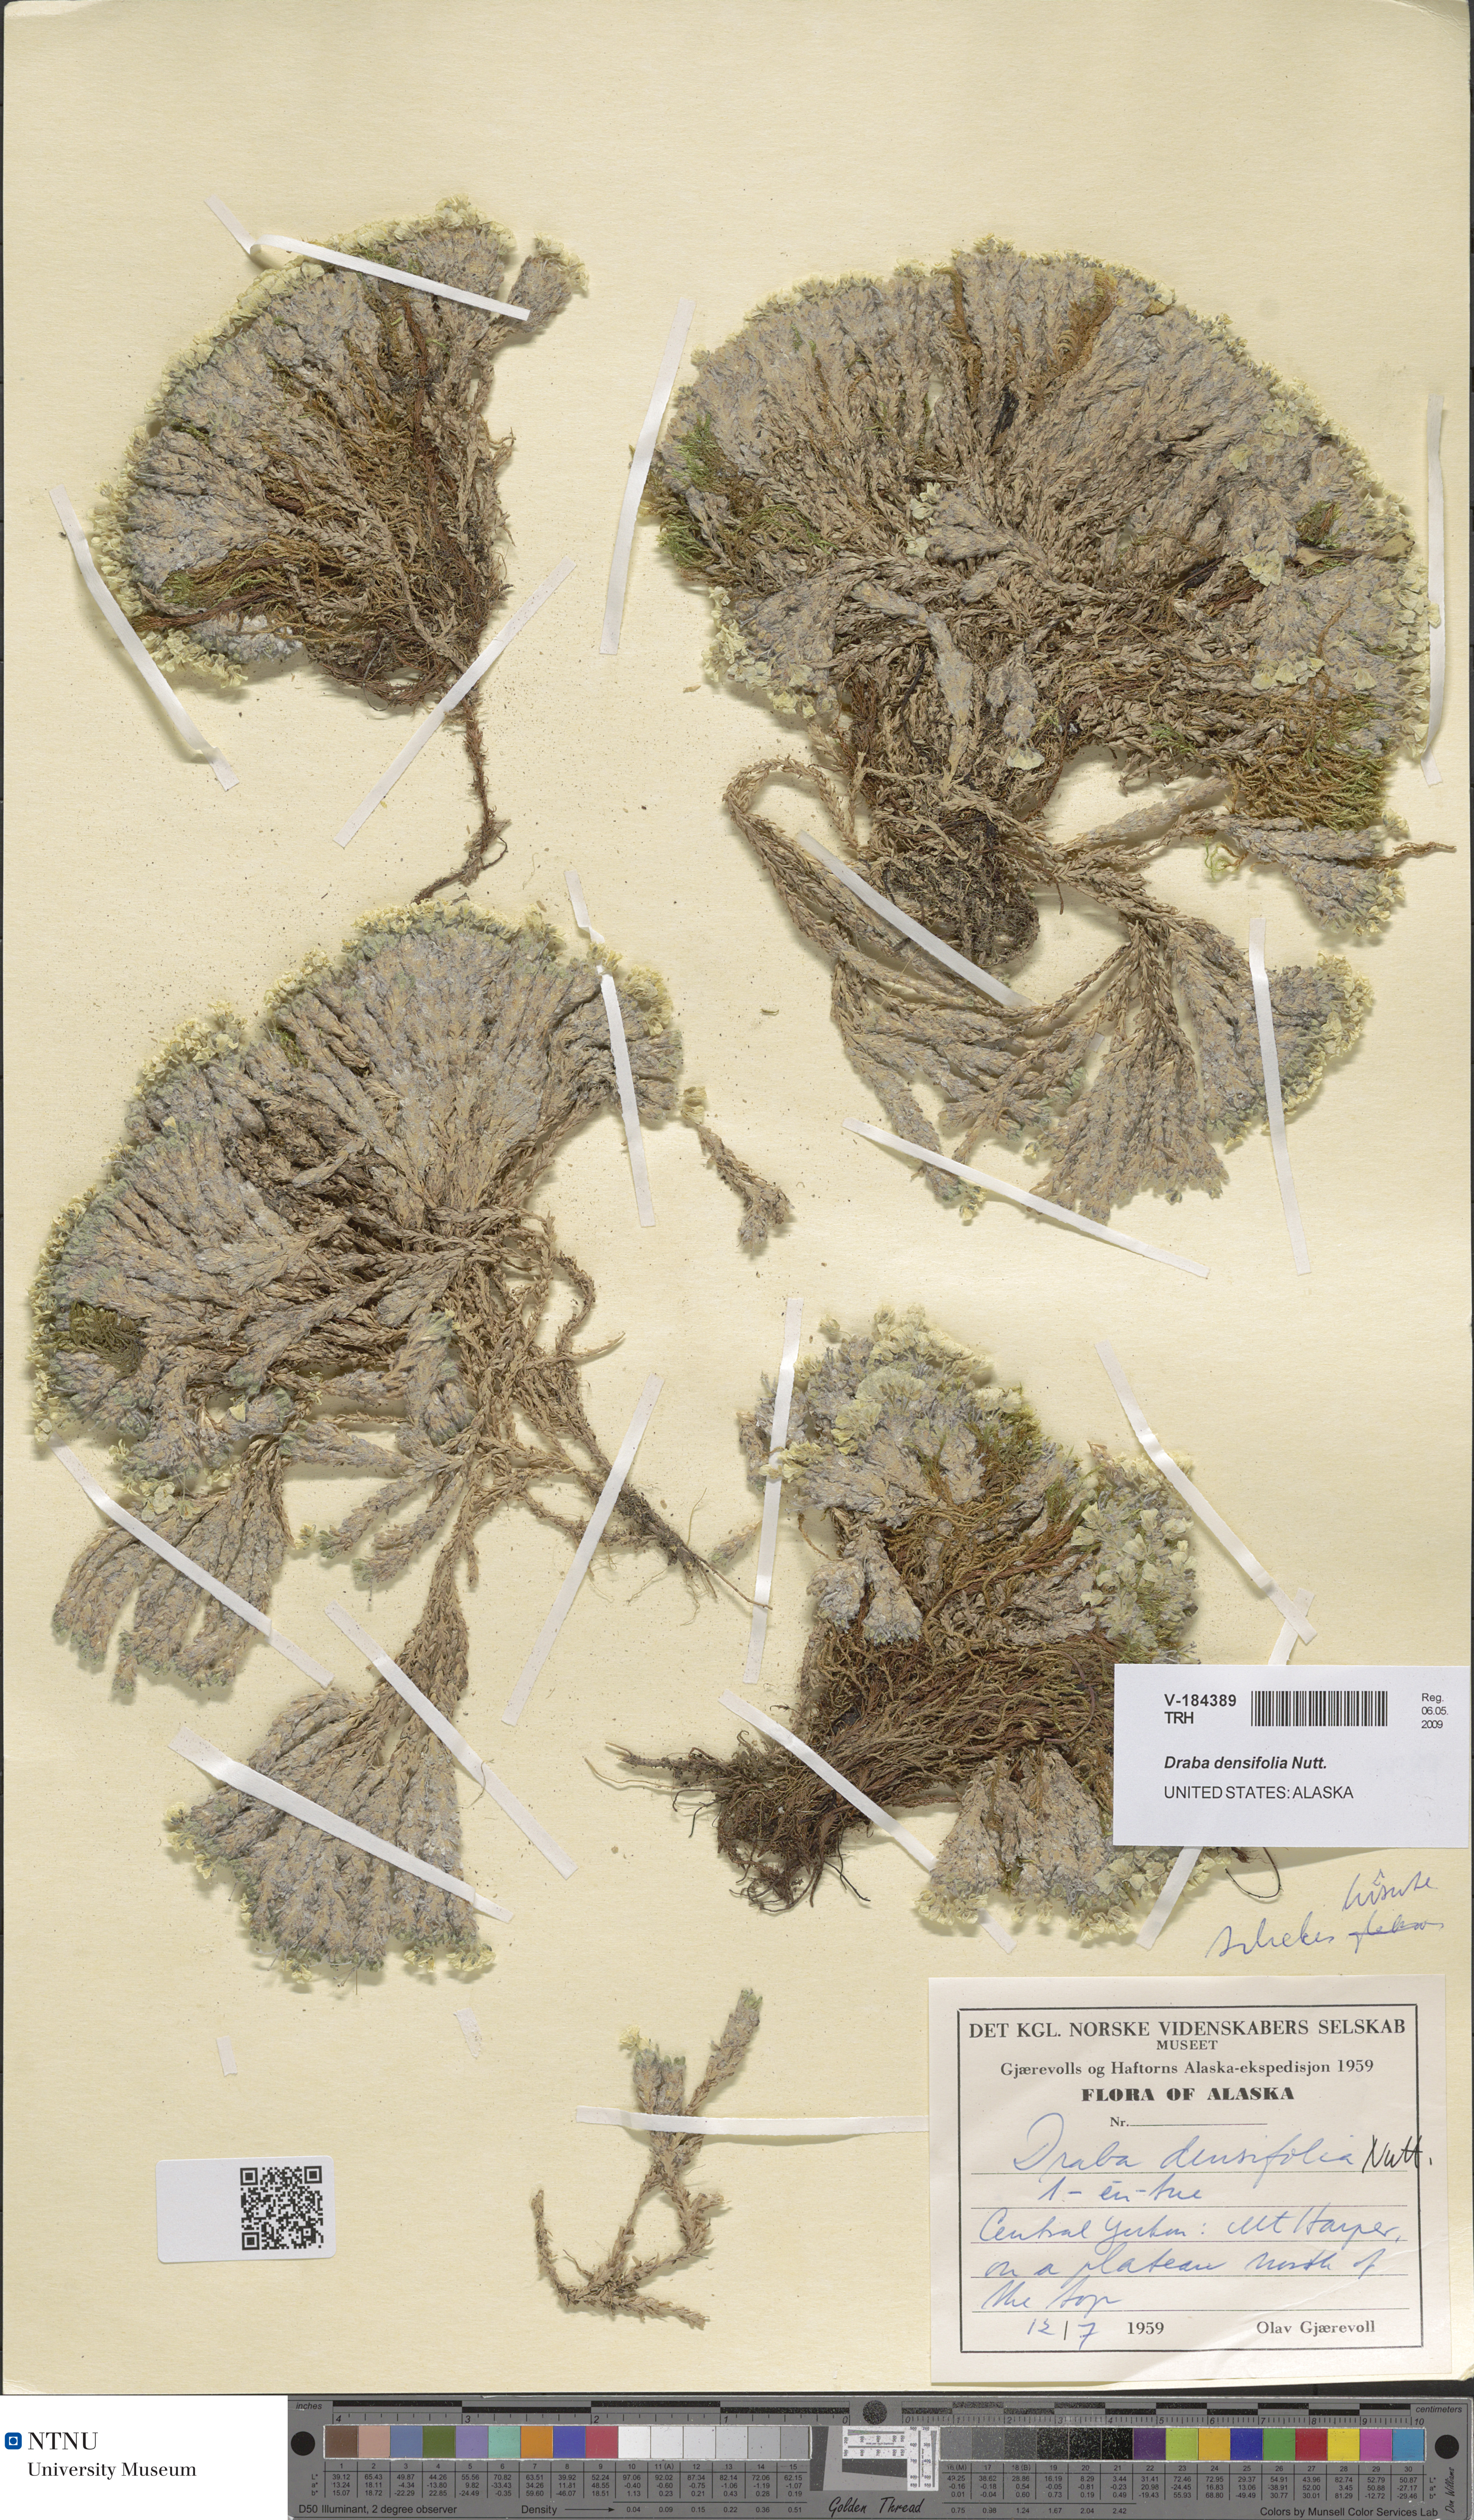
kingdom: Plantae
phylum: Tracheophyta
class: Magnoliopsida
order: Brassicales
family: Brassicaceae
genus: Draba
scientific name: Draba densifolia
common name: Nuttall's draba
